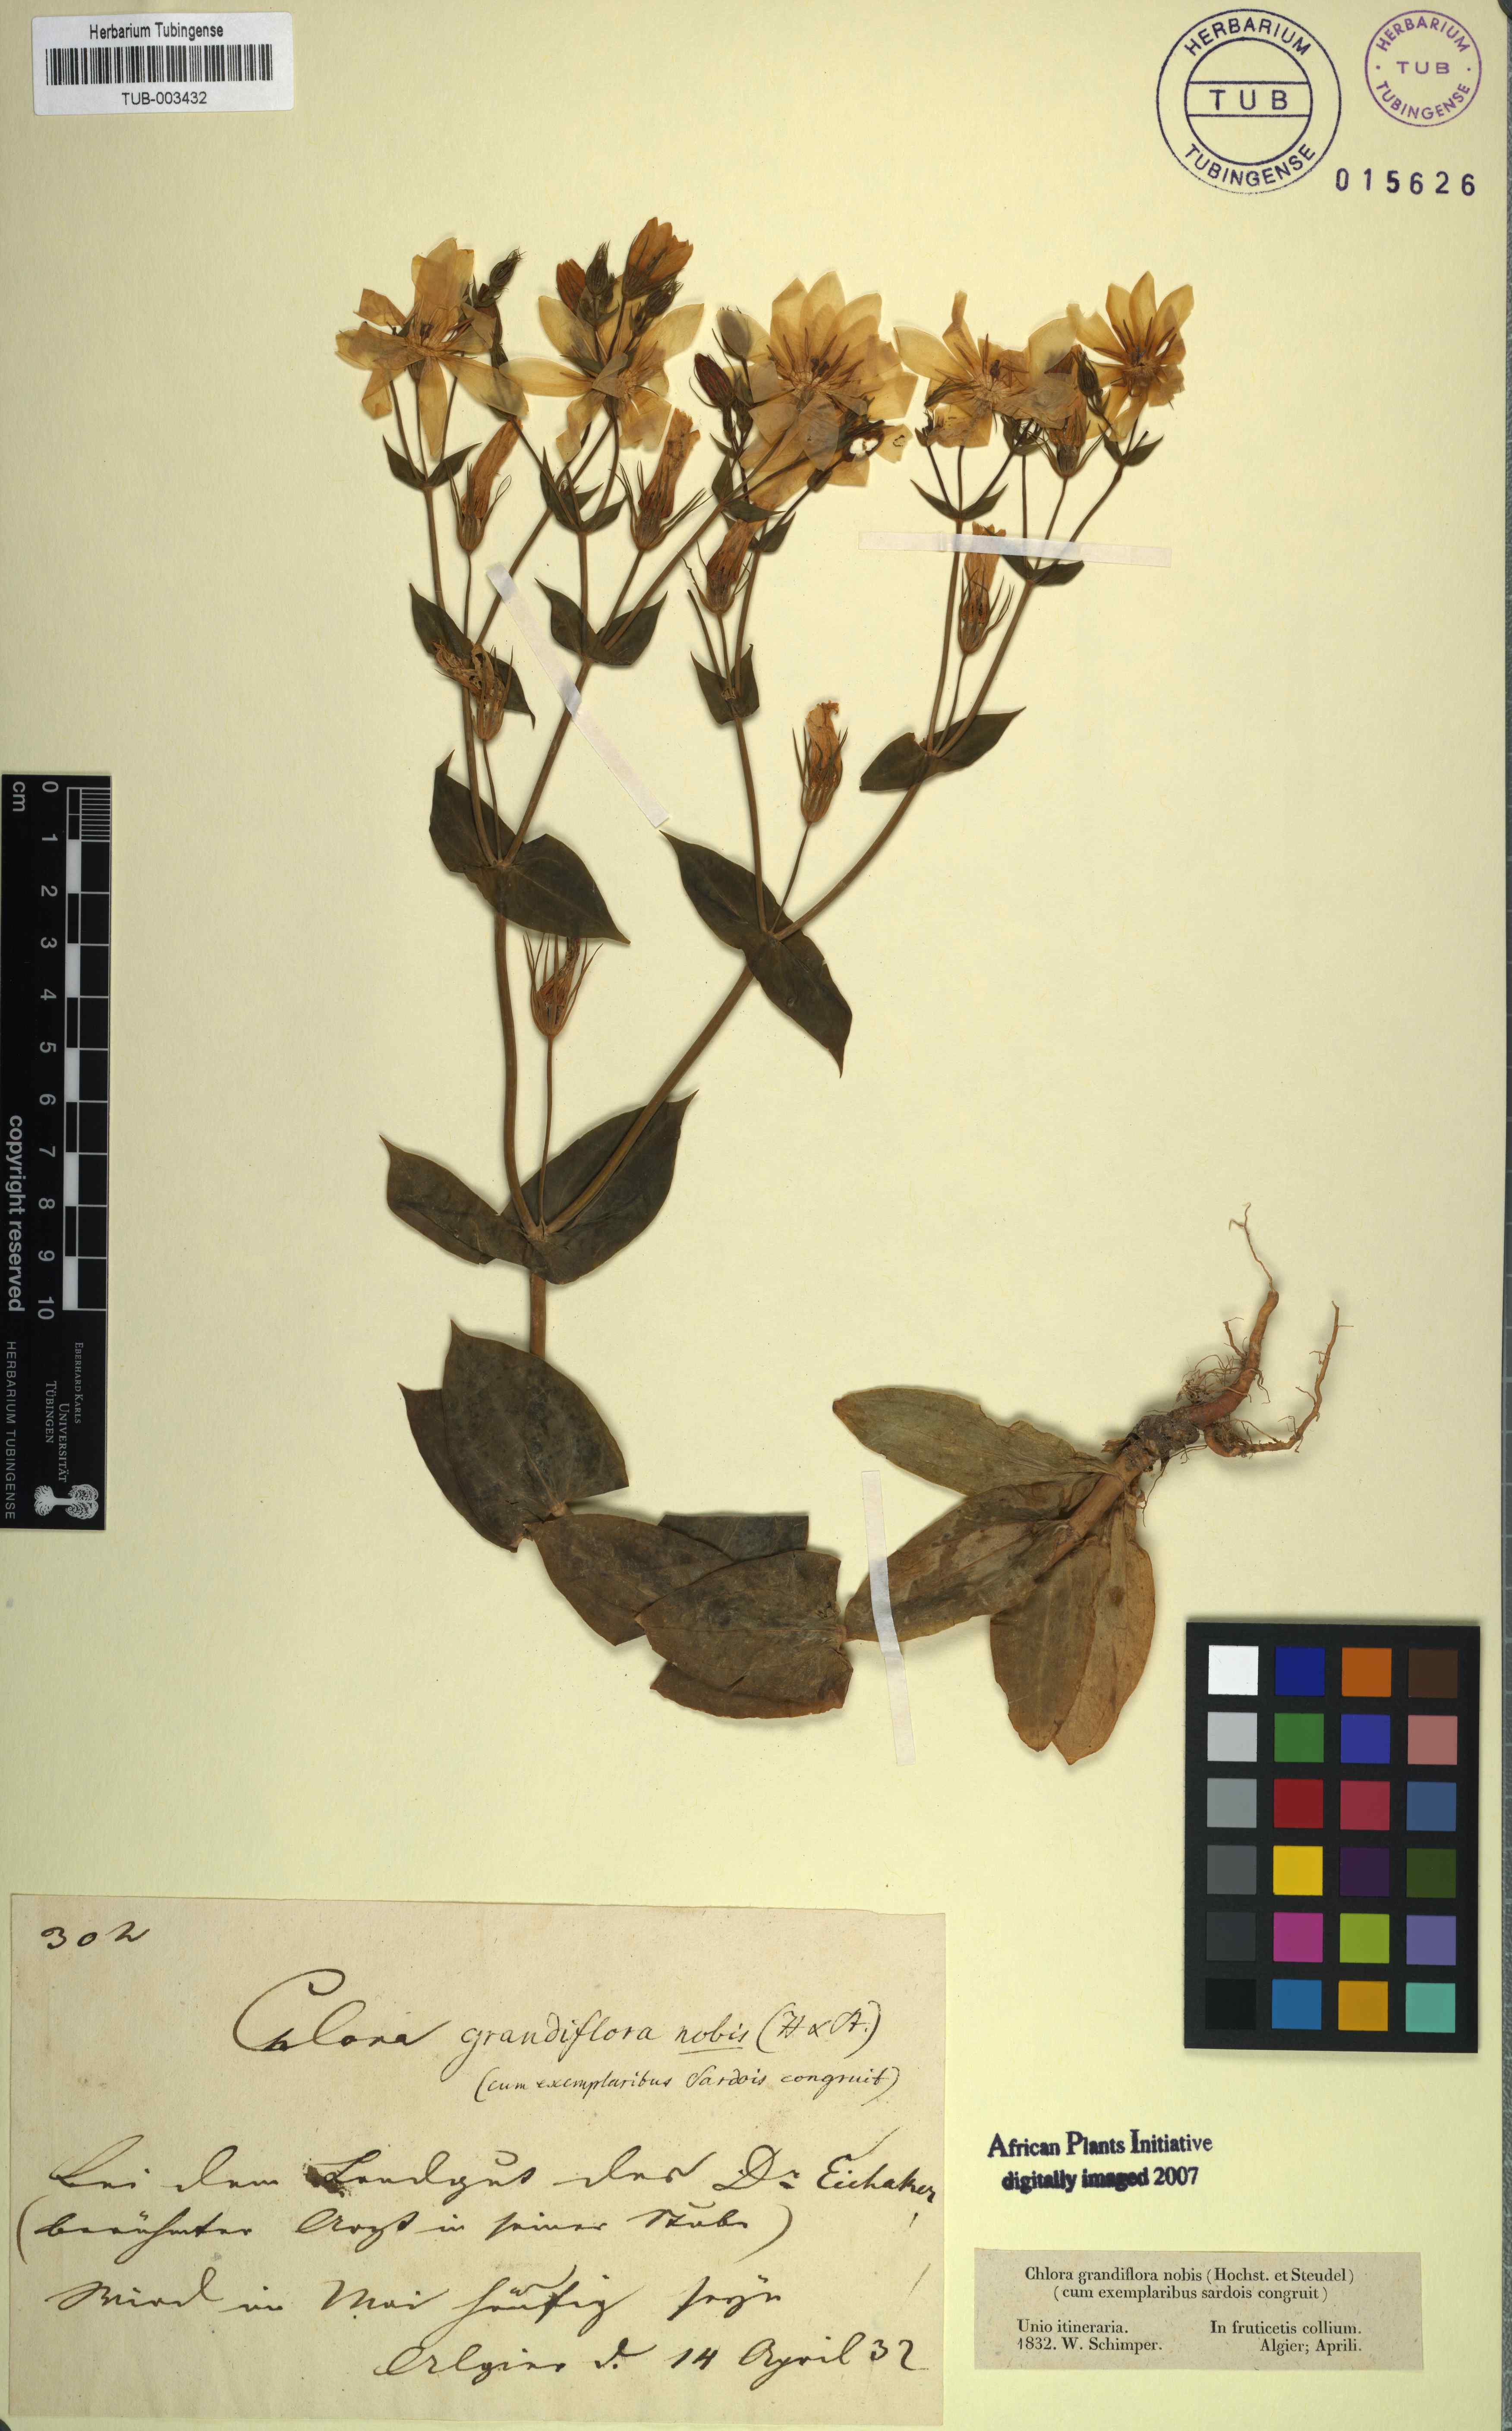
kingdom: Plantae
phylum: Tracheophyta
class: Magnoliopsida
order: Gentianales
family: Gentianaceae
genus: Blackstonia
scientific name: Blackstonia perfoliata
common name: Yellow-wort
